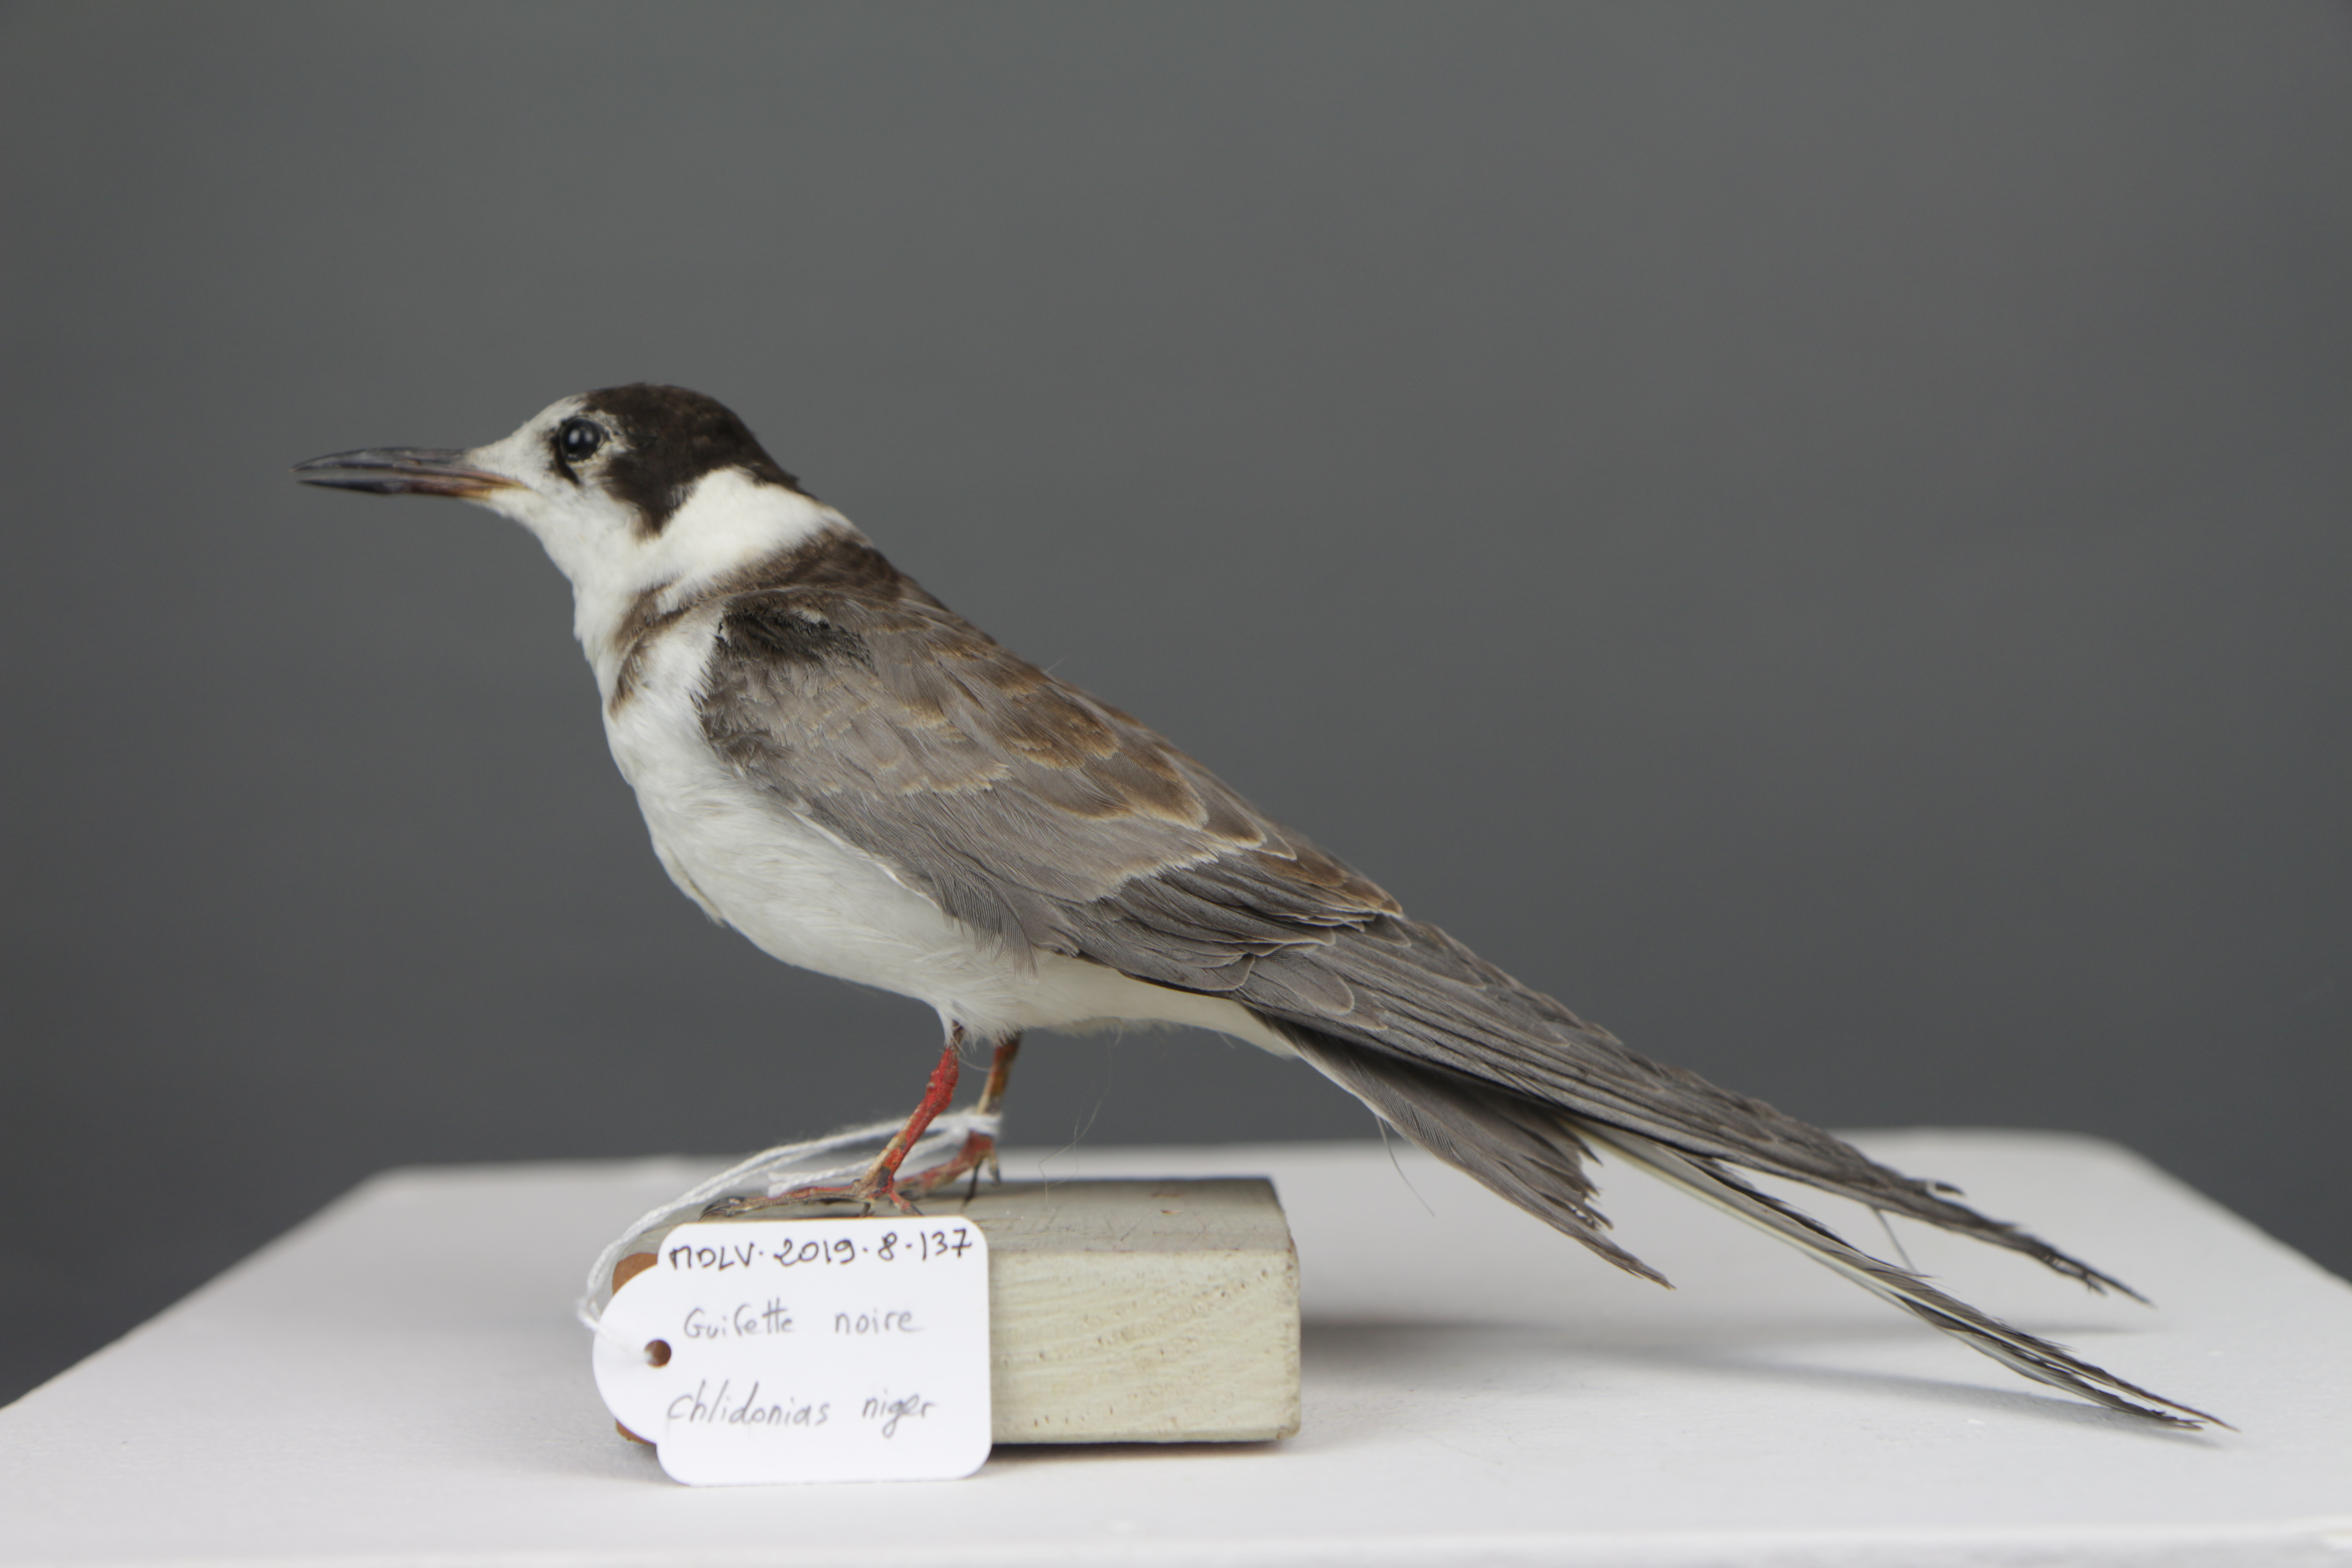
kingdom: Animalia
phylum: Chordata
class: Aves
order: Charadriiformes
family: Laridae
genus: Chlidonias
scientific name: Chlidonias niger
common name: Black tern
